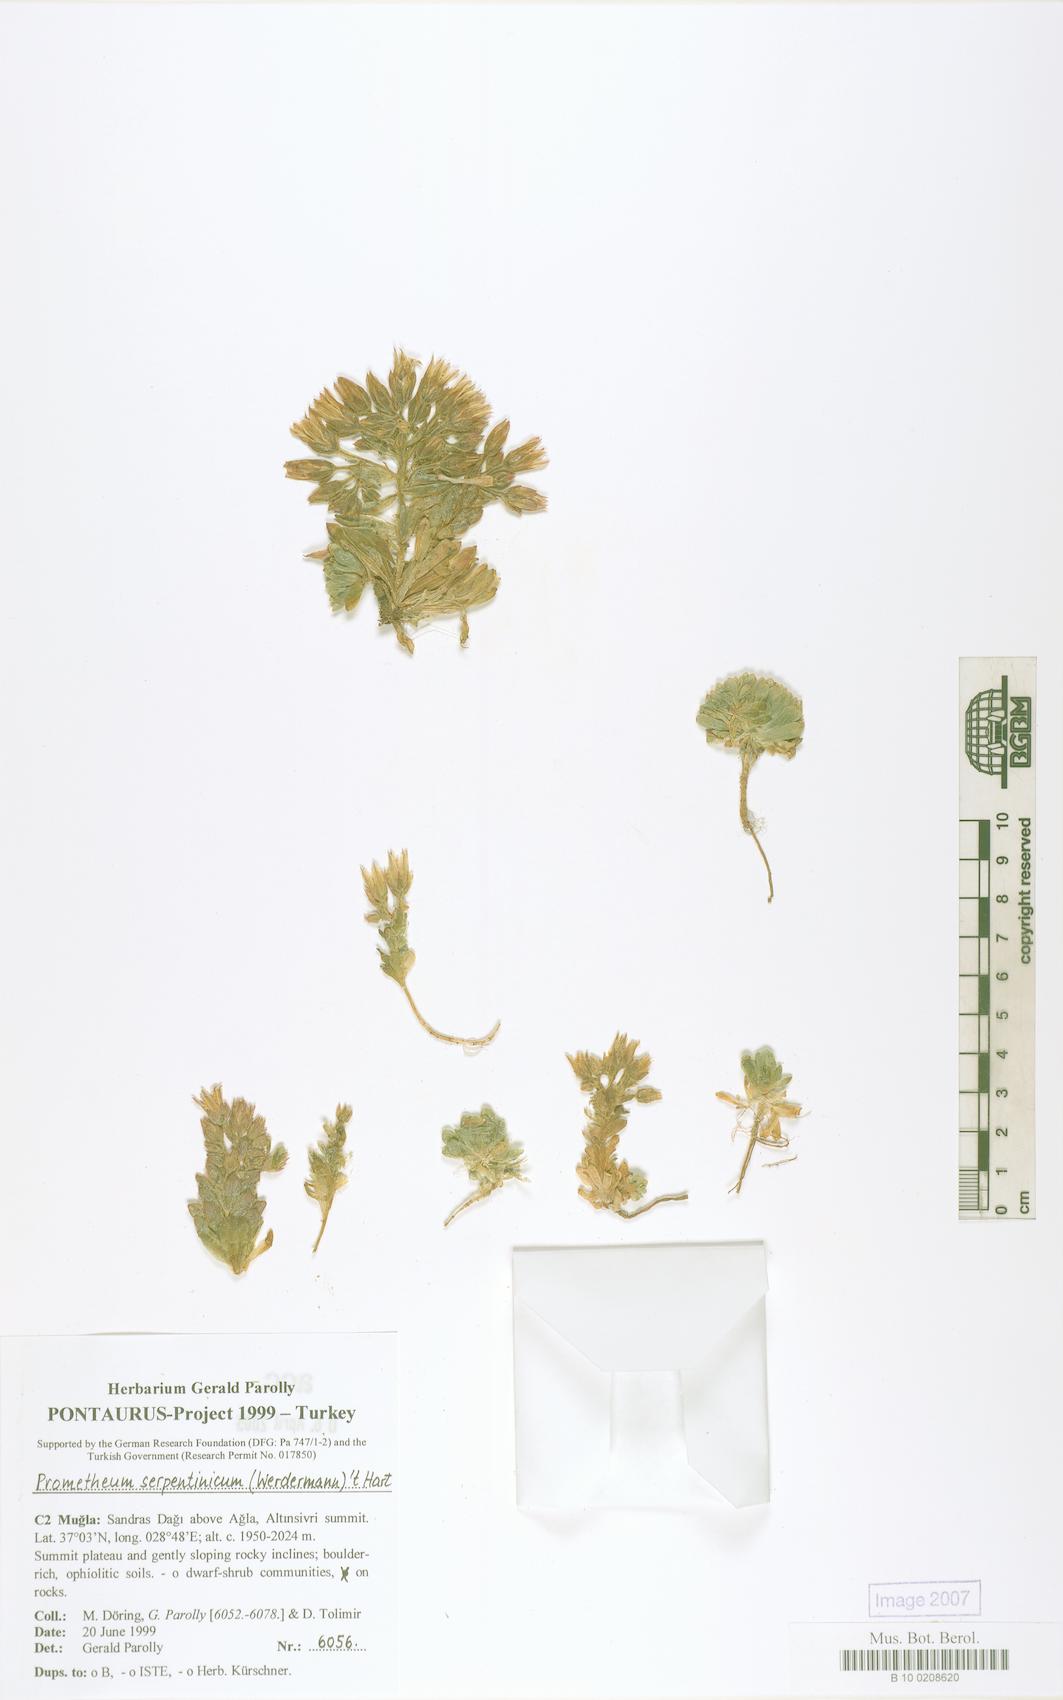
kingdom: Plantae
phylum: Tracheophyta
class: Magnoliopsida
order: Saxifragales
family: Crassulaceae
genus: Prometheum
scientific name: Prometheum serpentinicum
